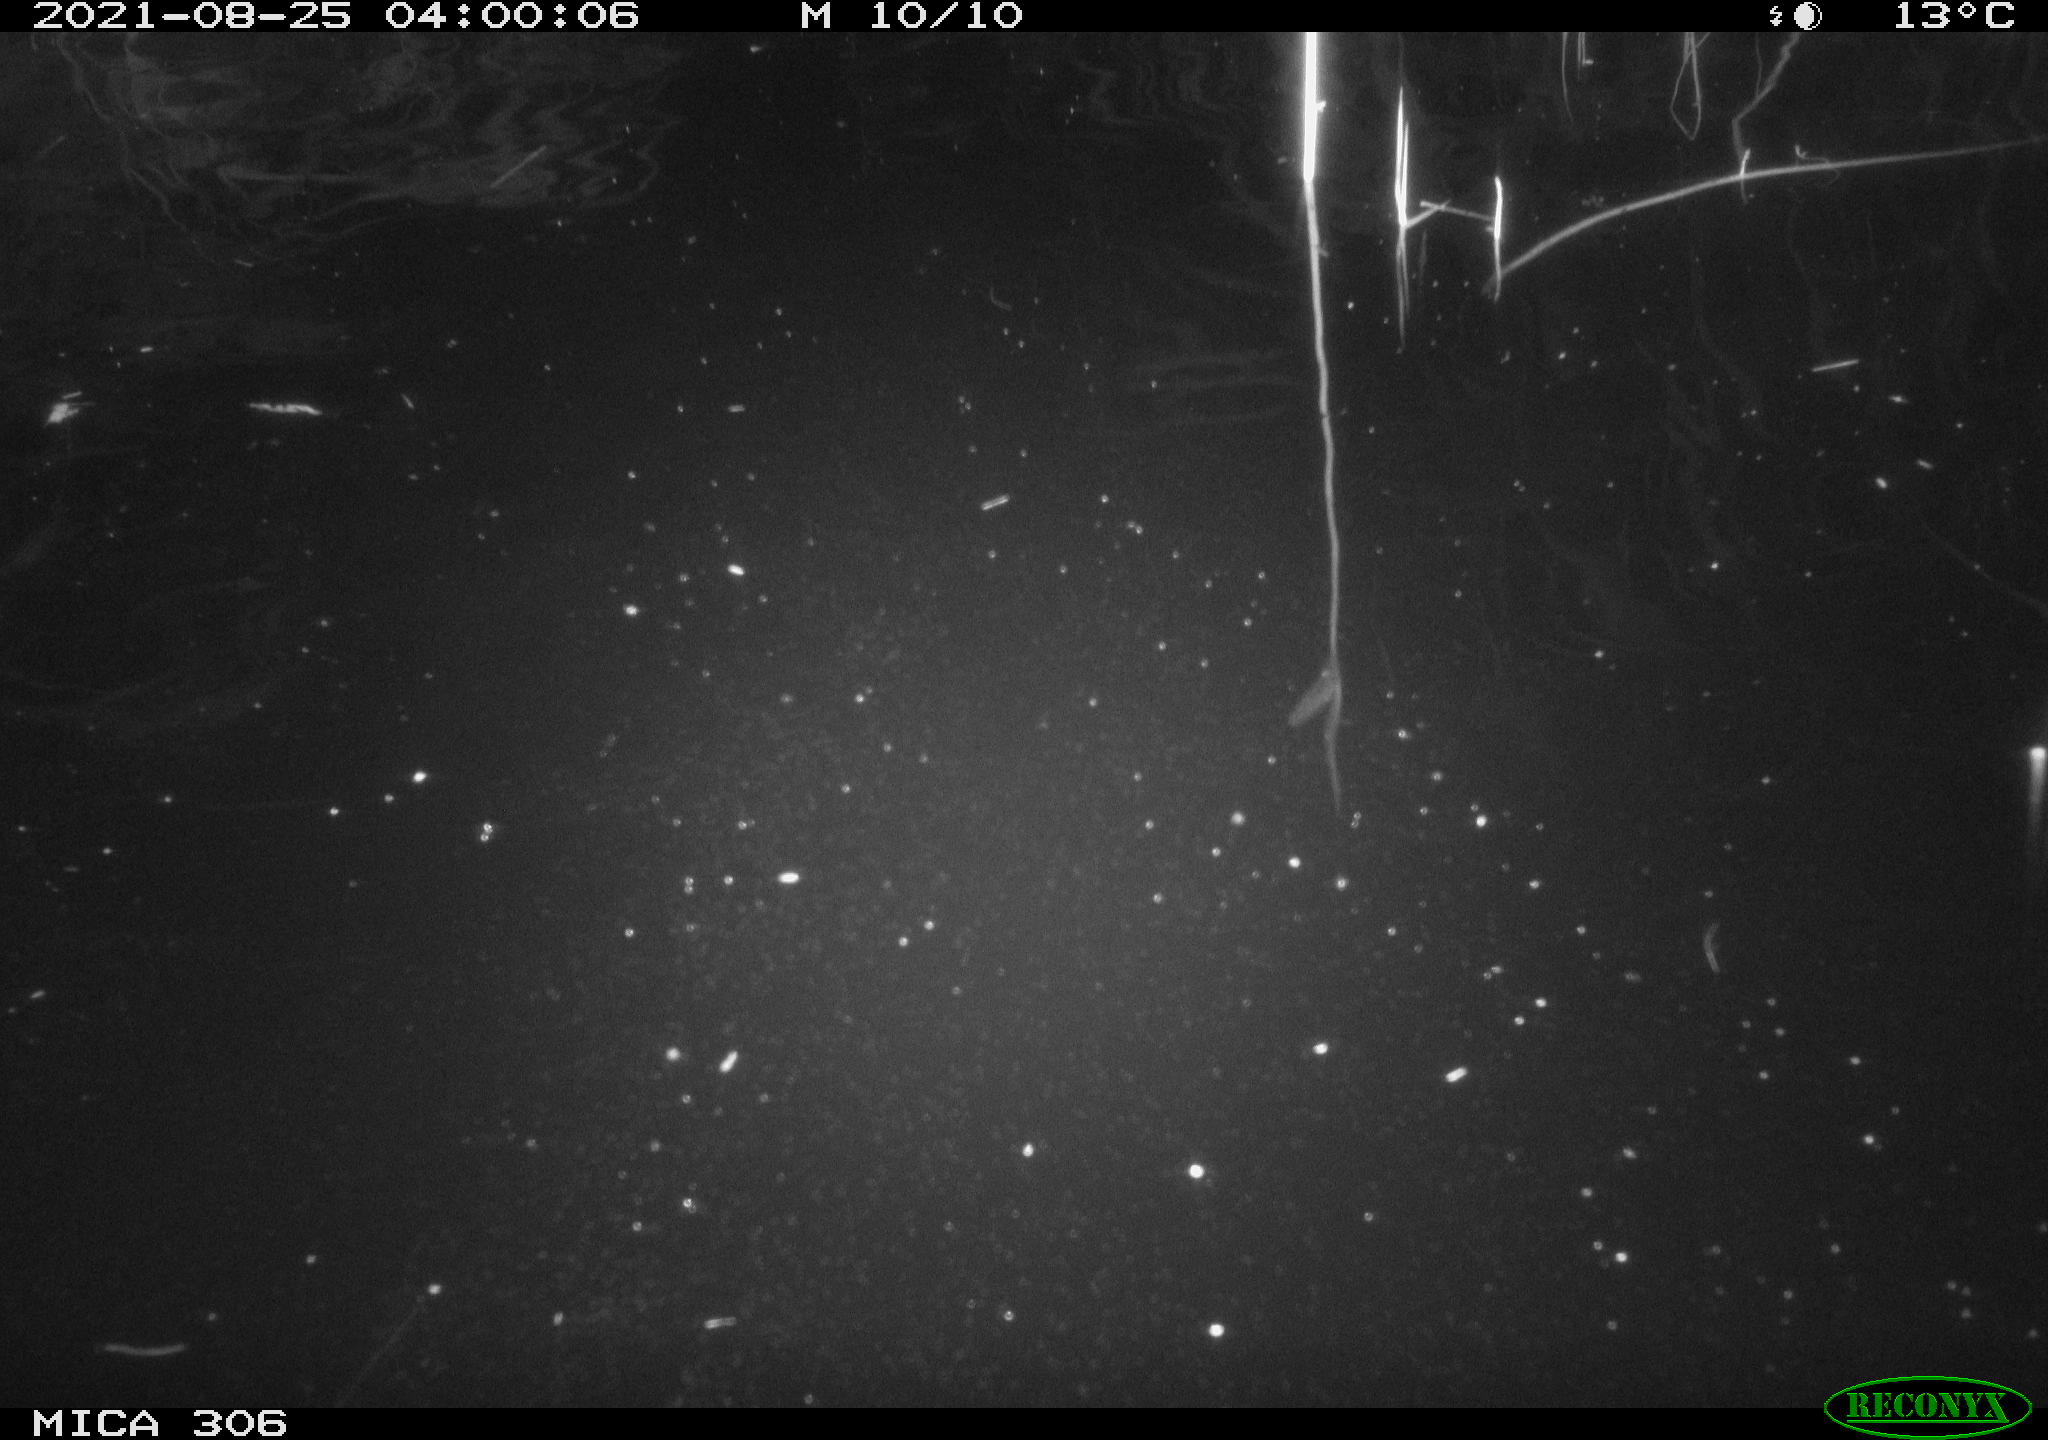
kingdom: Animalia
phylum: Chordata
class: Mammalia
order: Rodentia
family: Cricetidae
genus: Ondatra
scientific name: Ondatra zibethicus
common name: Muskrat
